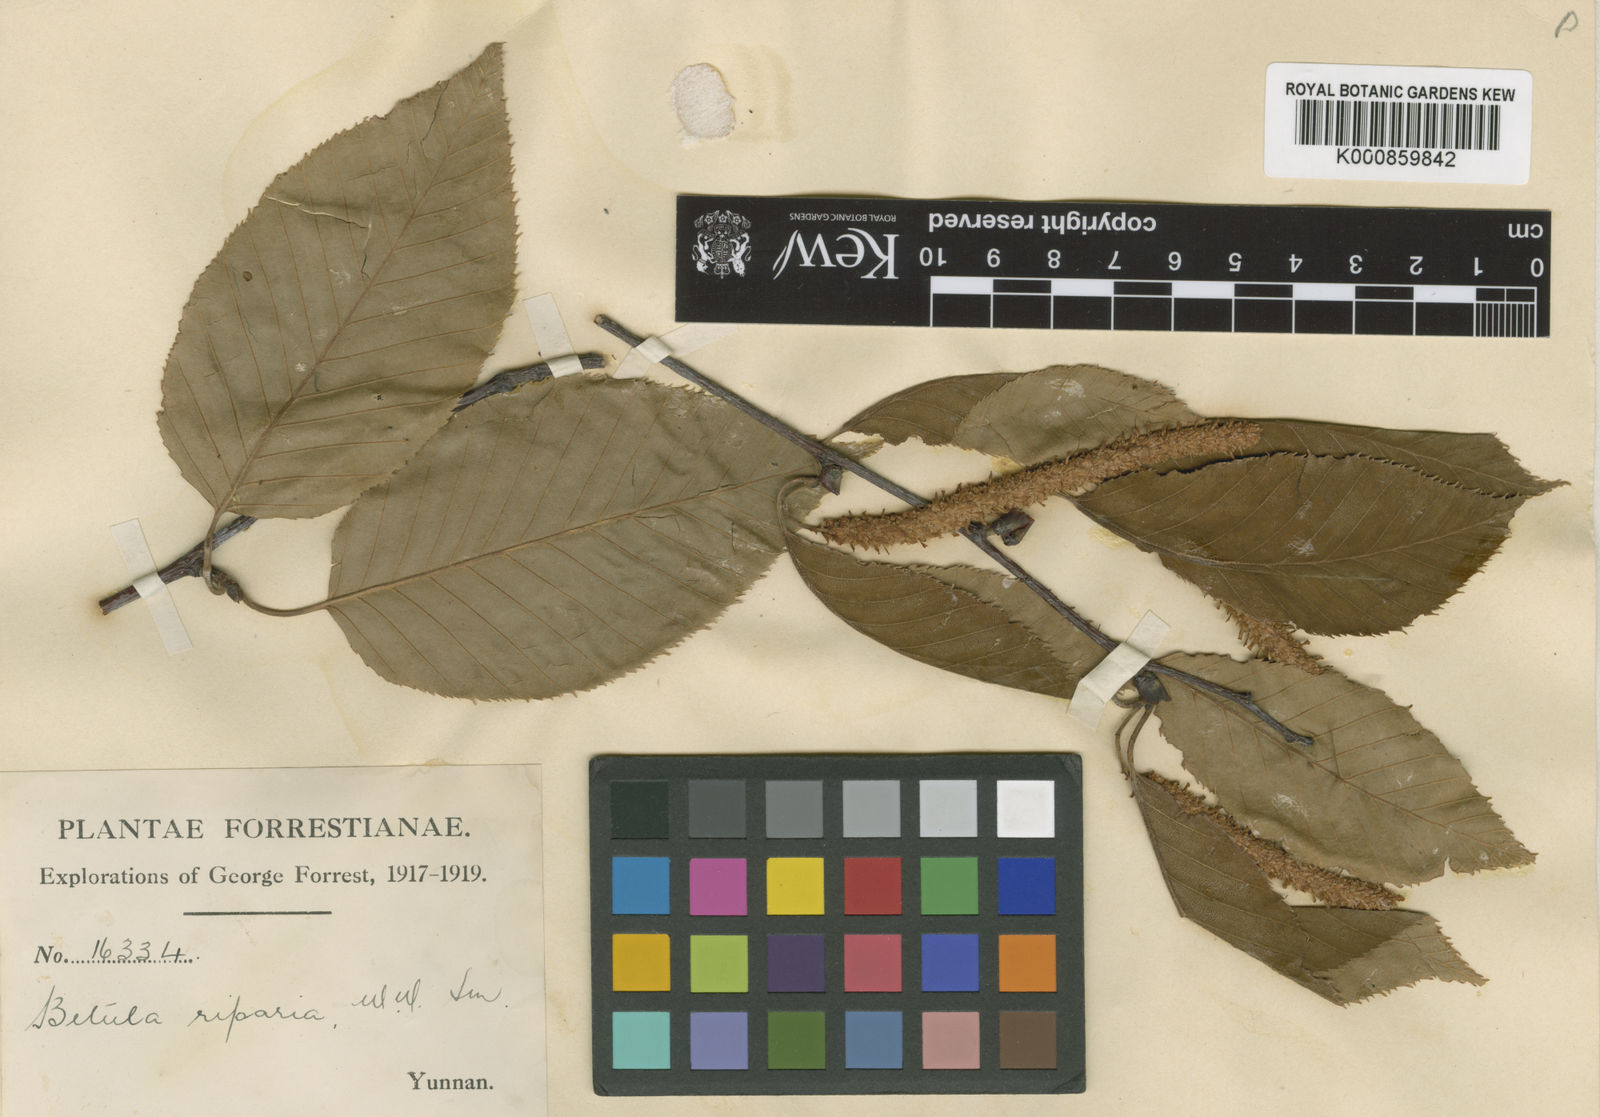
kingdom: Plantae
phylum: Tracheophyta
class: Magnoliopsida
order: Fagales
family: Betulaceae
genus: Betula
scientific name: Betula luminifera
